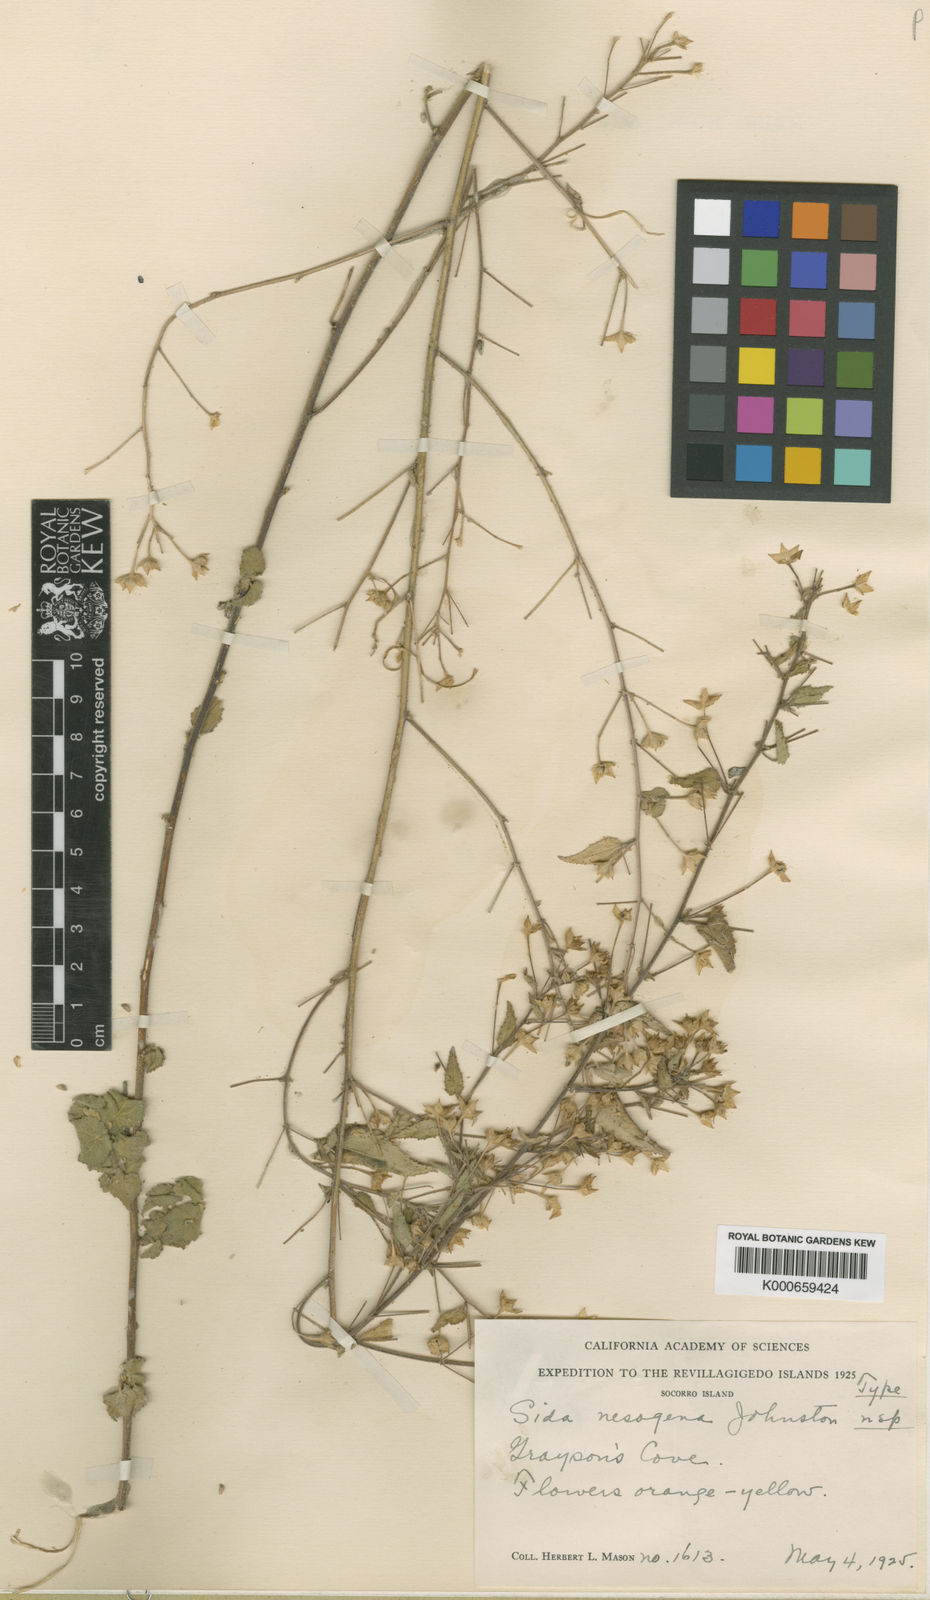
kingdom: Plantae
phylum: Tracheophyta
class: Magnoliopsida
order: Malvales
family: Malvaceae
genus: Sida
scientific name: Sida nesogena
